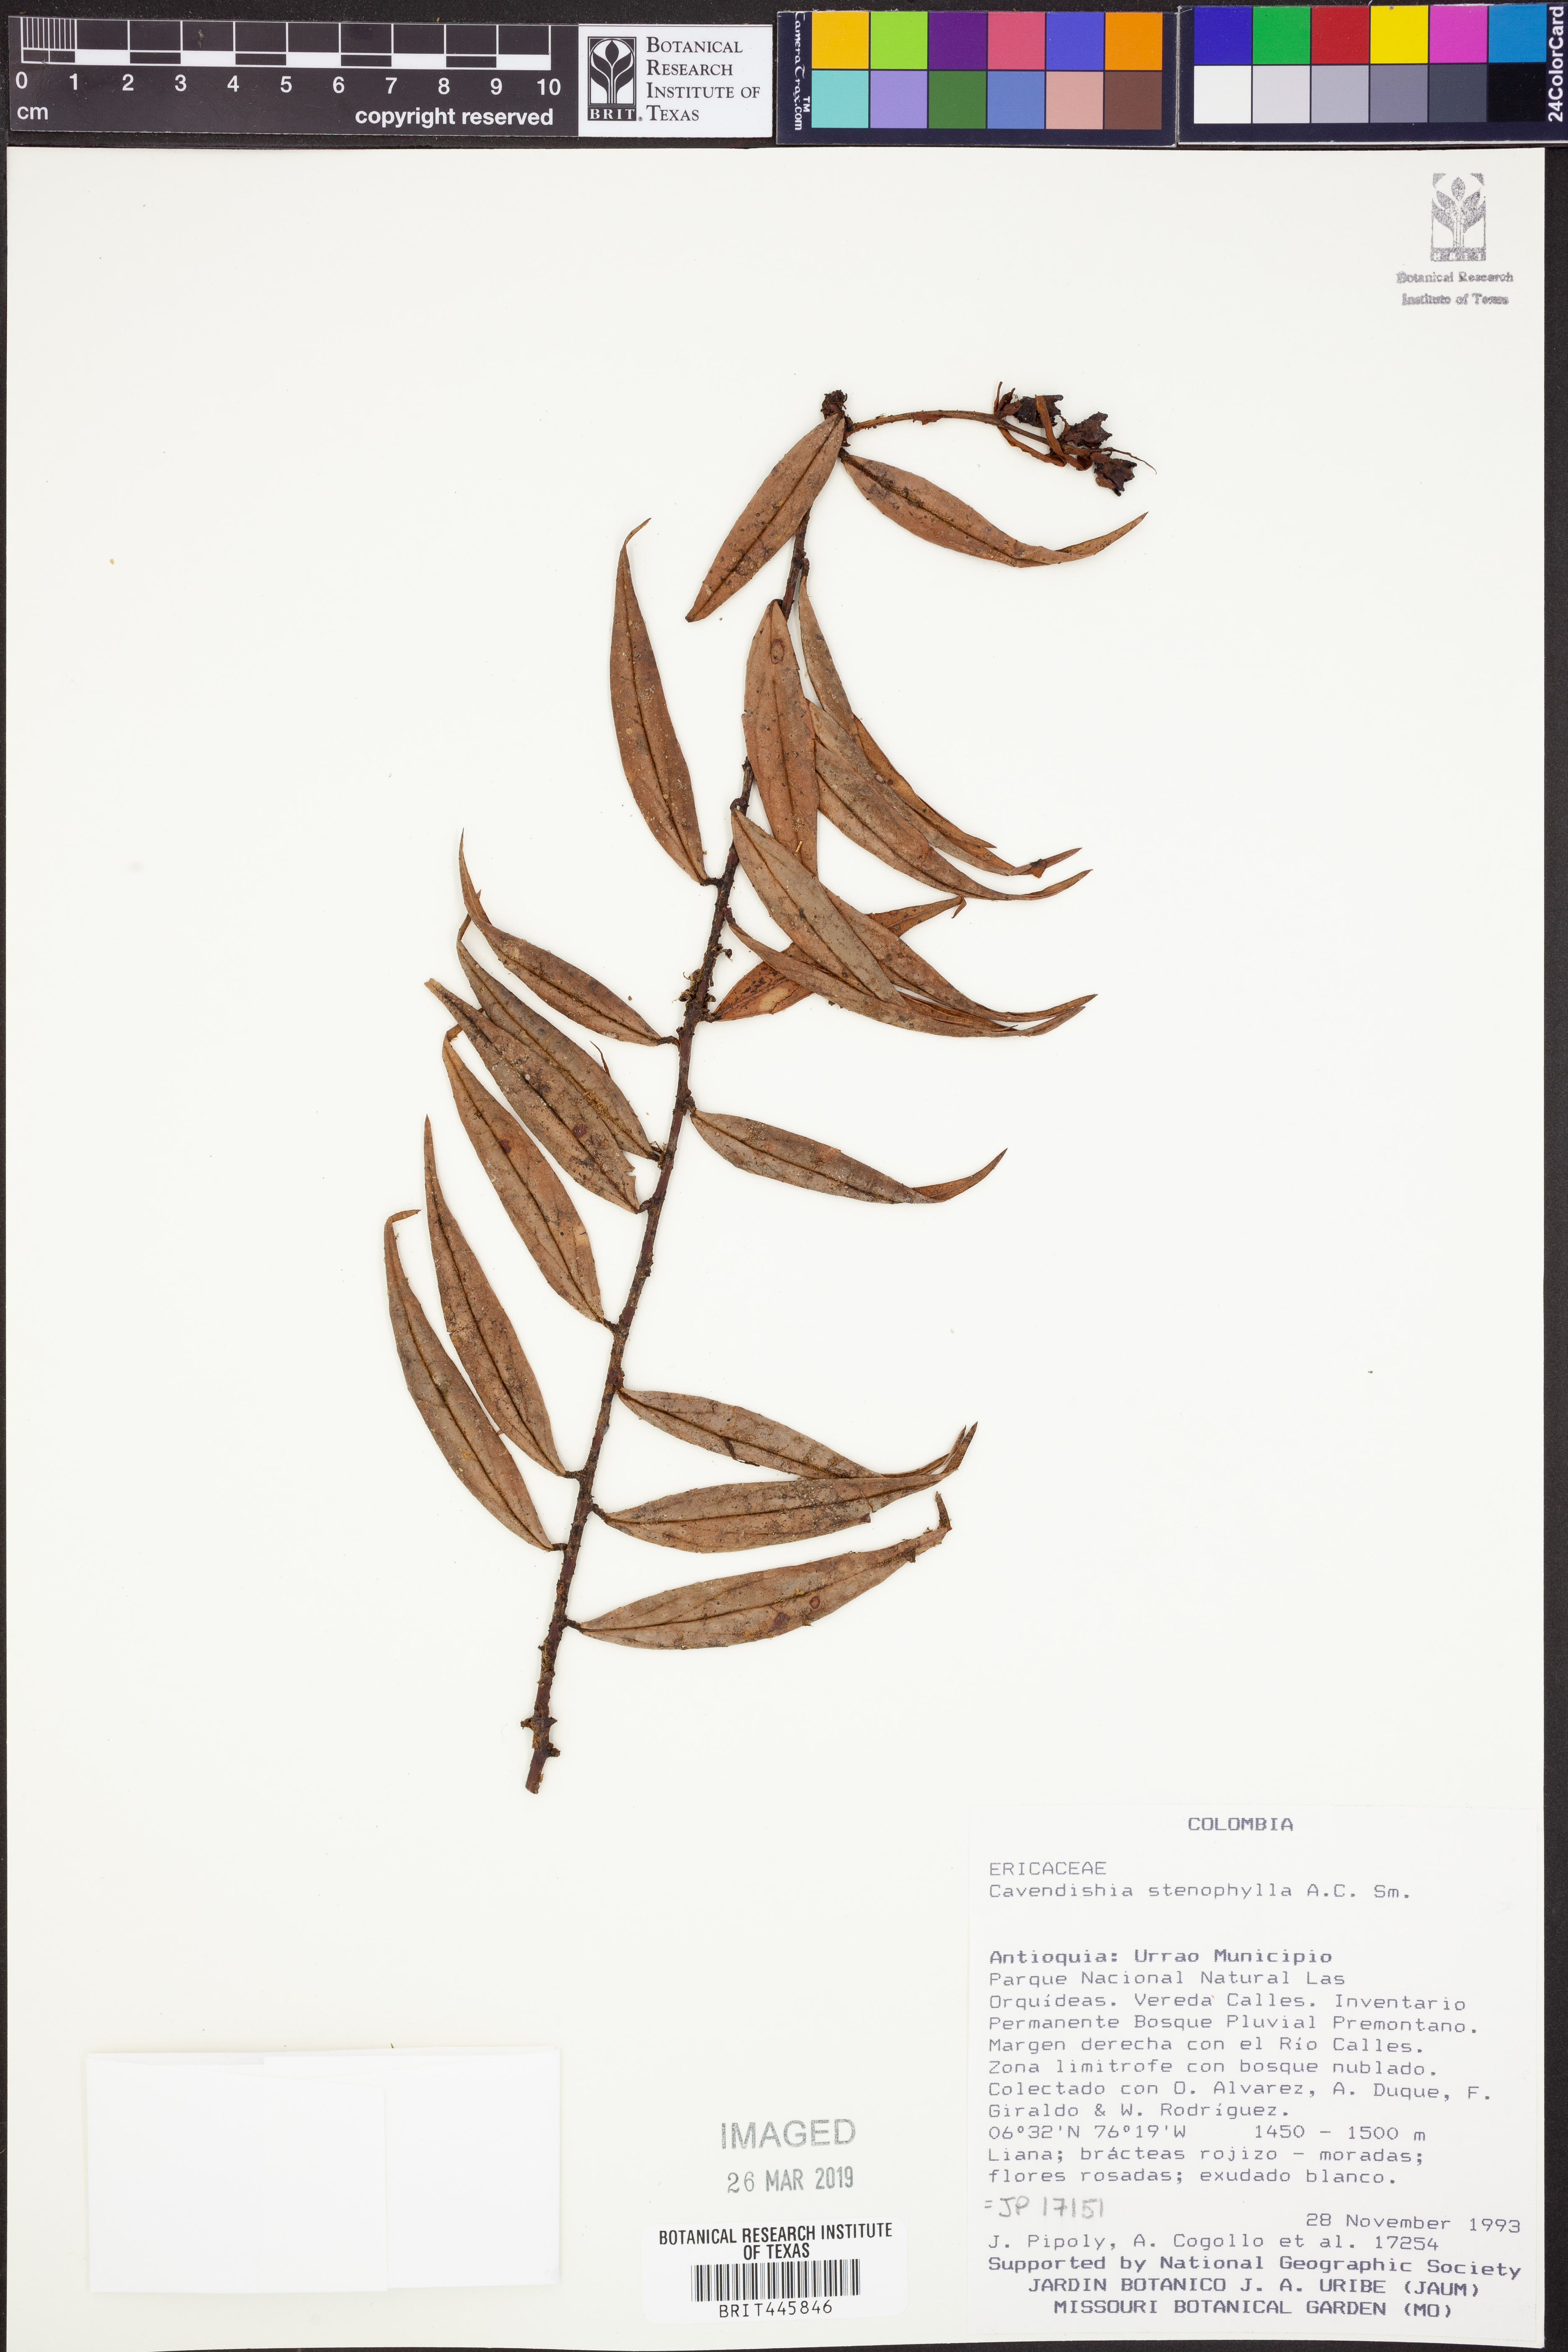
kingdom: Plantae
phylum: Tracheophyta
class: Magnoliopsida
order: Ericales
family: Ericaceae
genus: Cavendishia
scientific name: Cavendishia stenophylla
